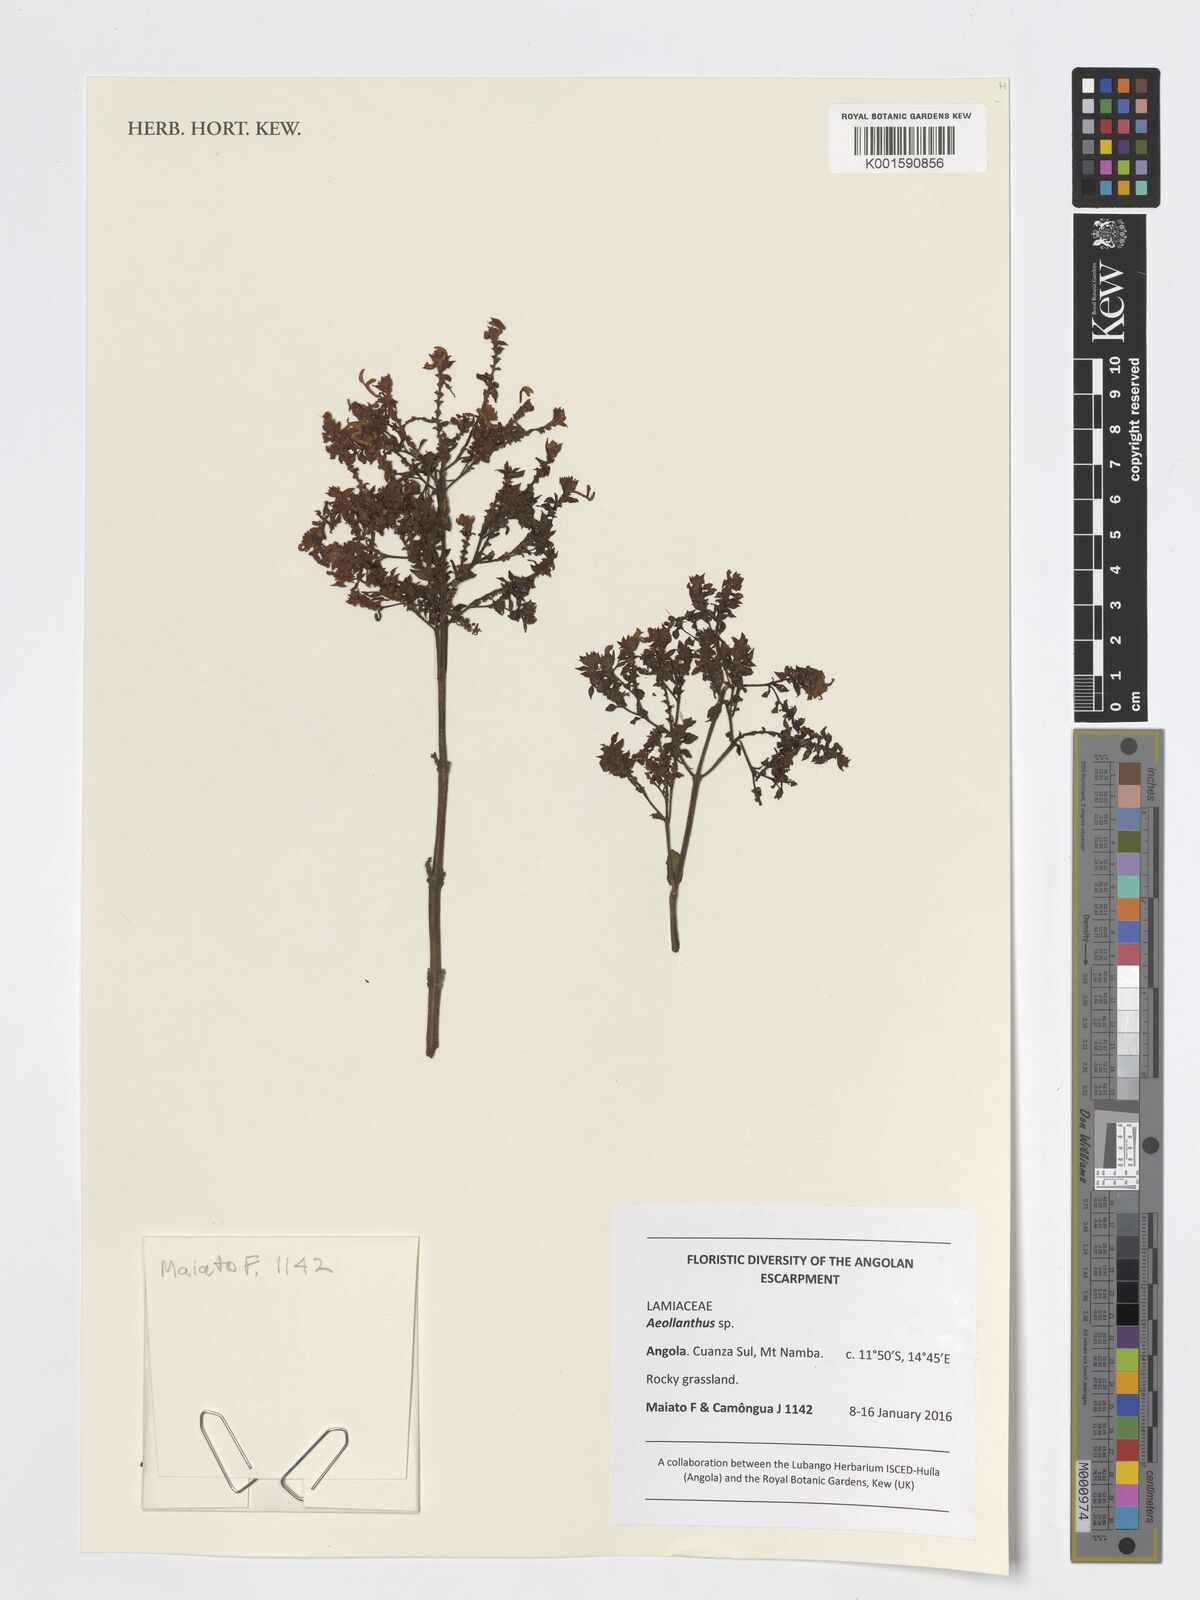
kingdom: Plantae
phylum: Tracheophyta
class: Magnoliopsida
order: Lamiales
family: Lamiaceae
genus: Aeollanthus
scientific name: Aeollanthus
